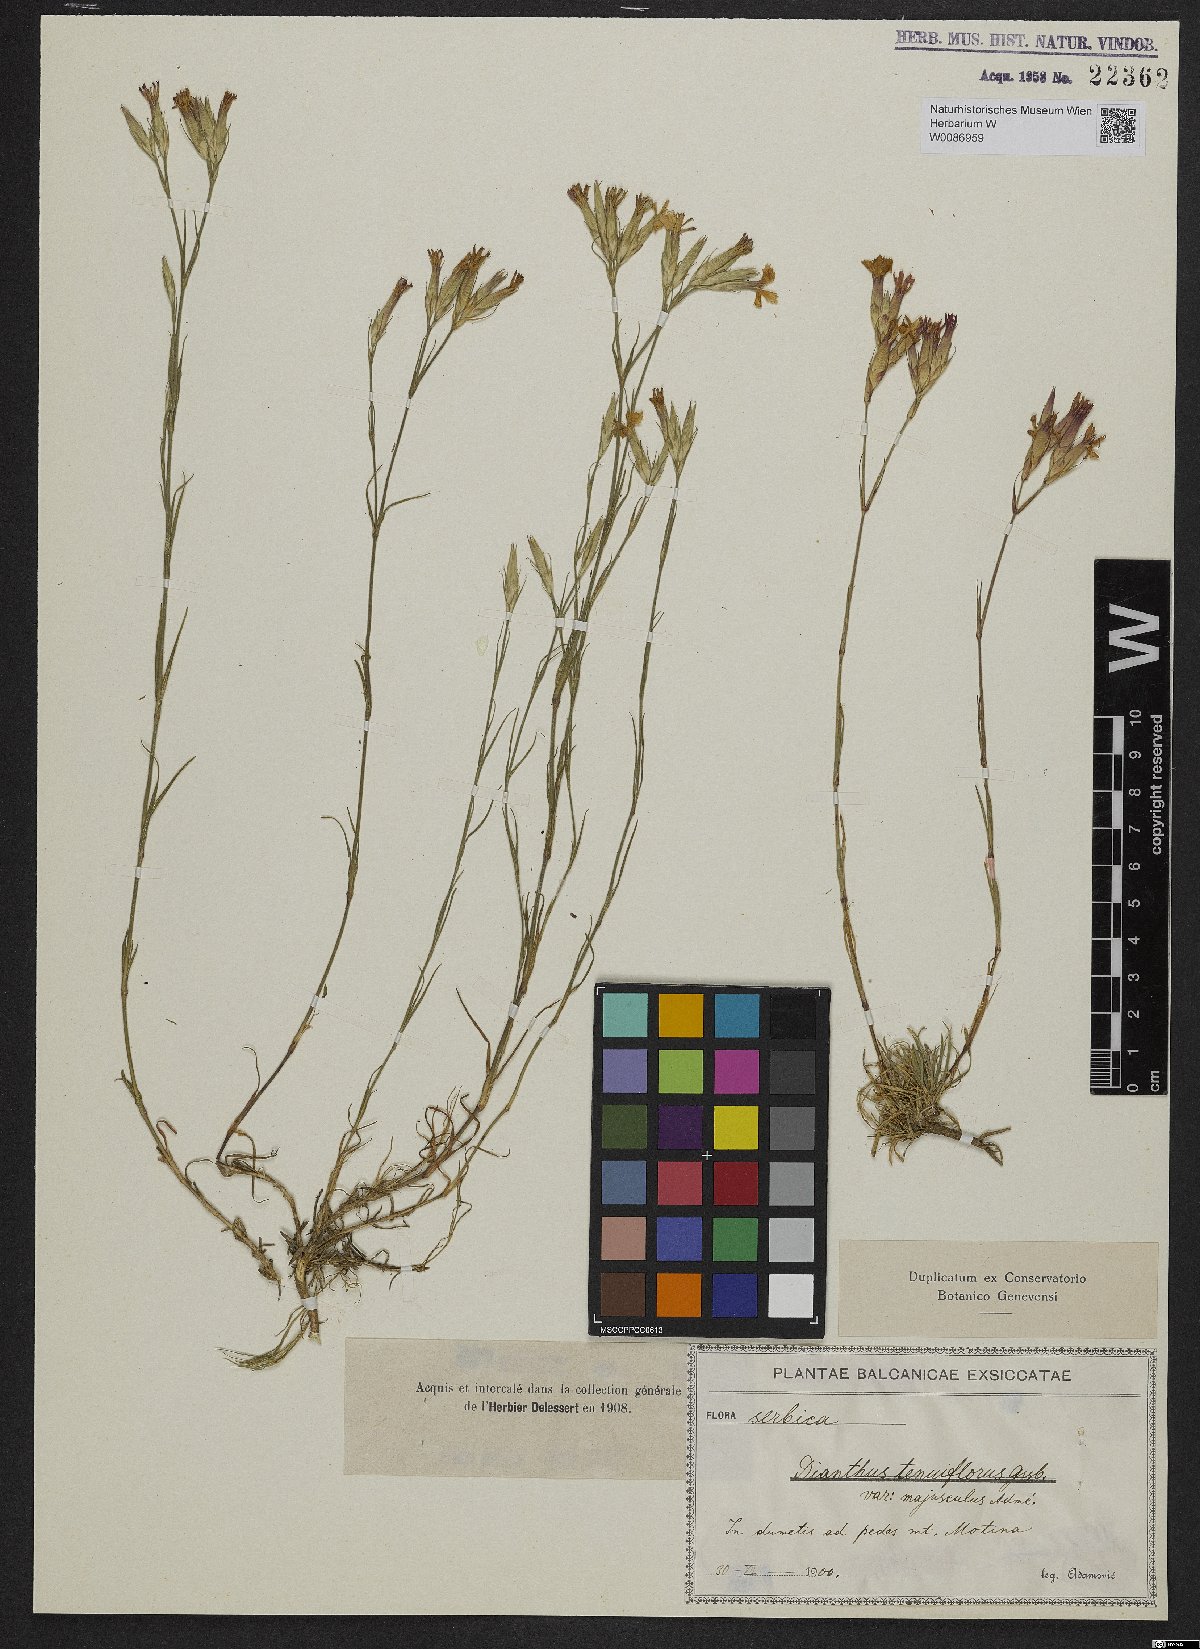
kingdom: Plantae
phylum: Tracheophyta
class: Magnoliopsida
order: Caryophyllales
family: Caryophyllaceae
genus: Dianthus
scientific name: Dianthus tenuiflorus
